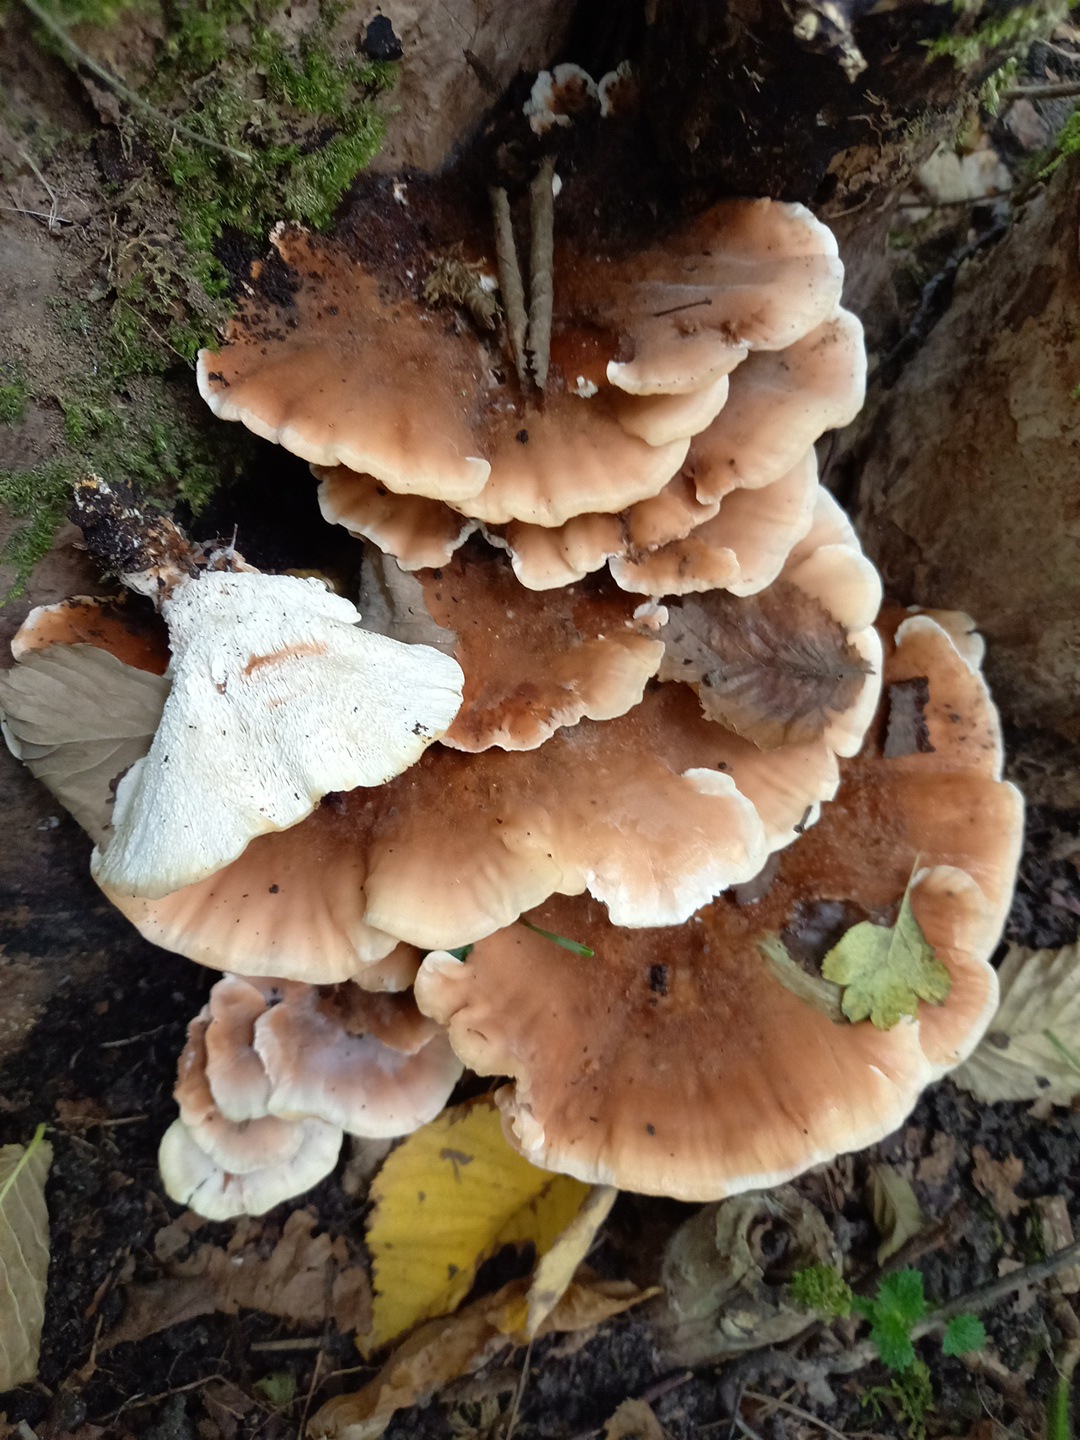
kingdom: Fungi
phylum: Basidiomycota
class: Agaricomycetes
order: Polyporales
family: Podoscyphaceae
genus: Abortiporus
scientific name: Abortiporus biennis
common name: rødmende pjalteporesvamp
